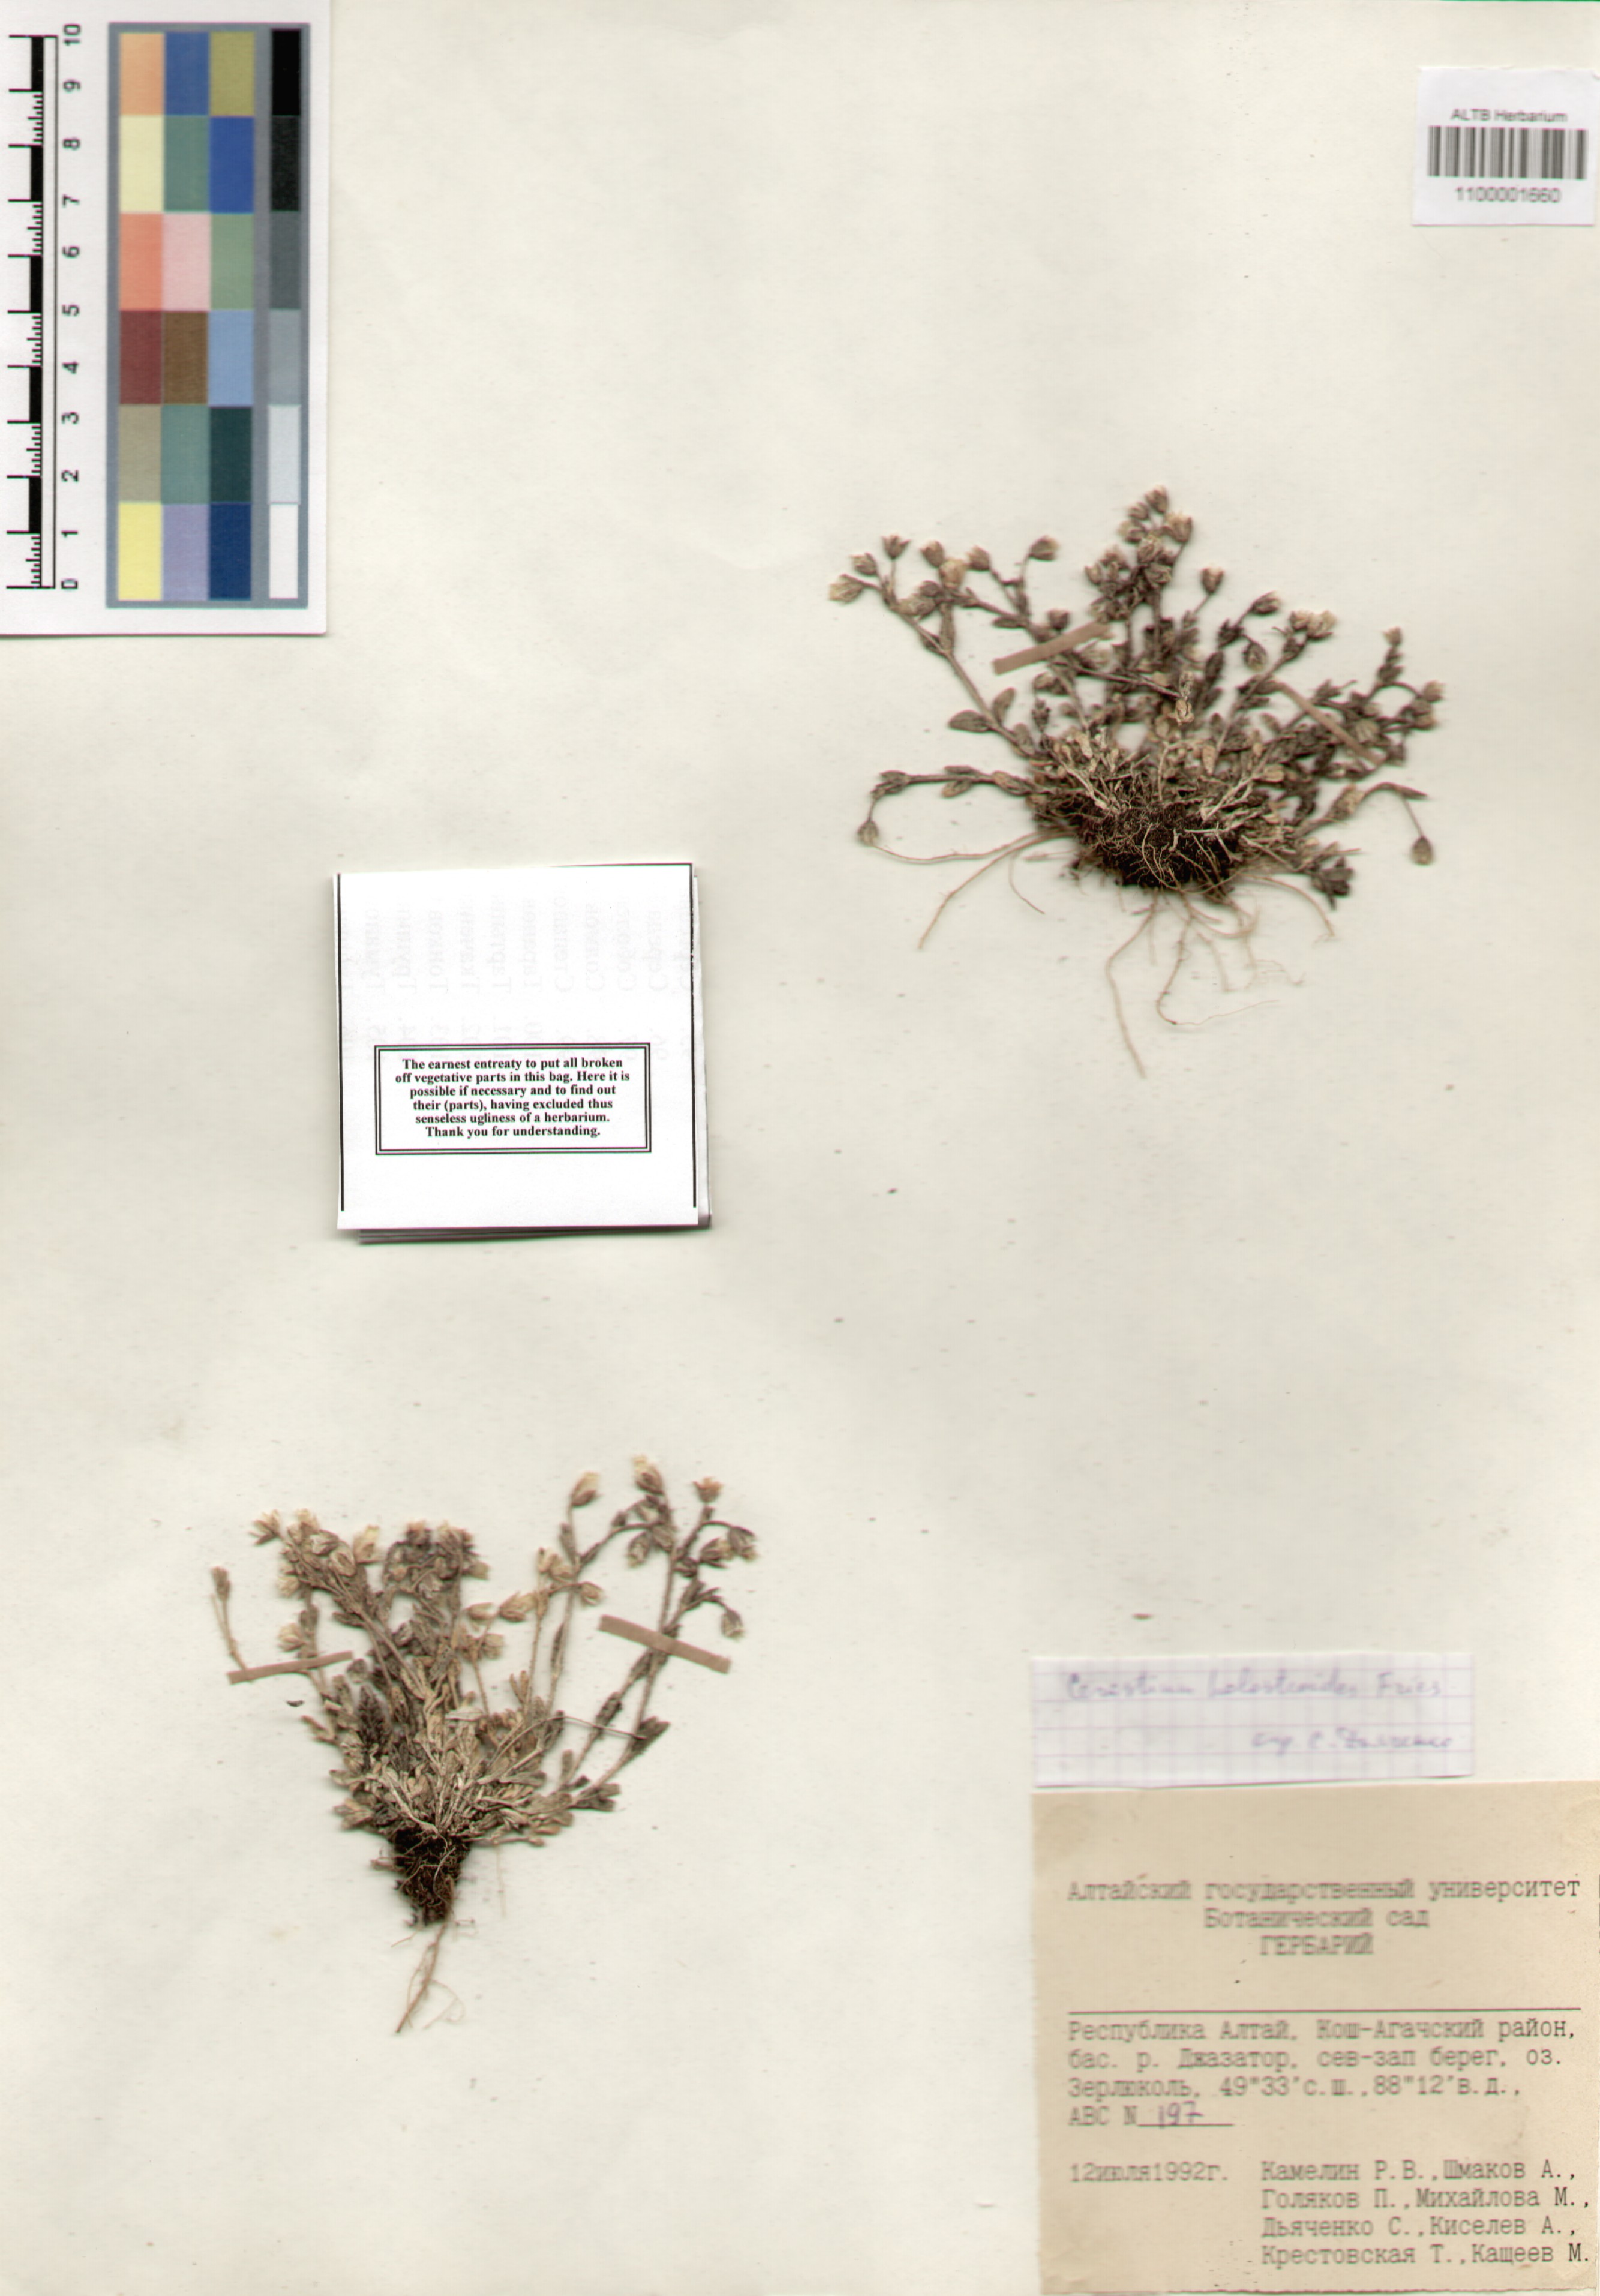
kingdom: Plantae
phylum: Tracheophyta
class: Magnoliopsida
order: Caryophyllales
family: Caryophyllaceae
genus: Cerastium
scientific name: Cerastium holosteoides
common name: Big chickweed
